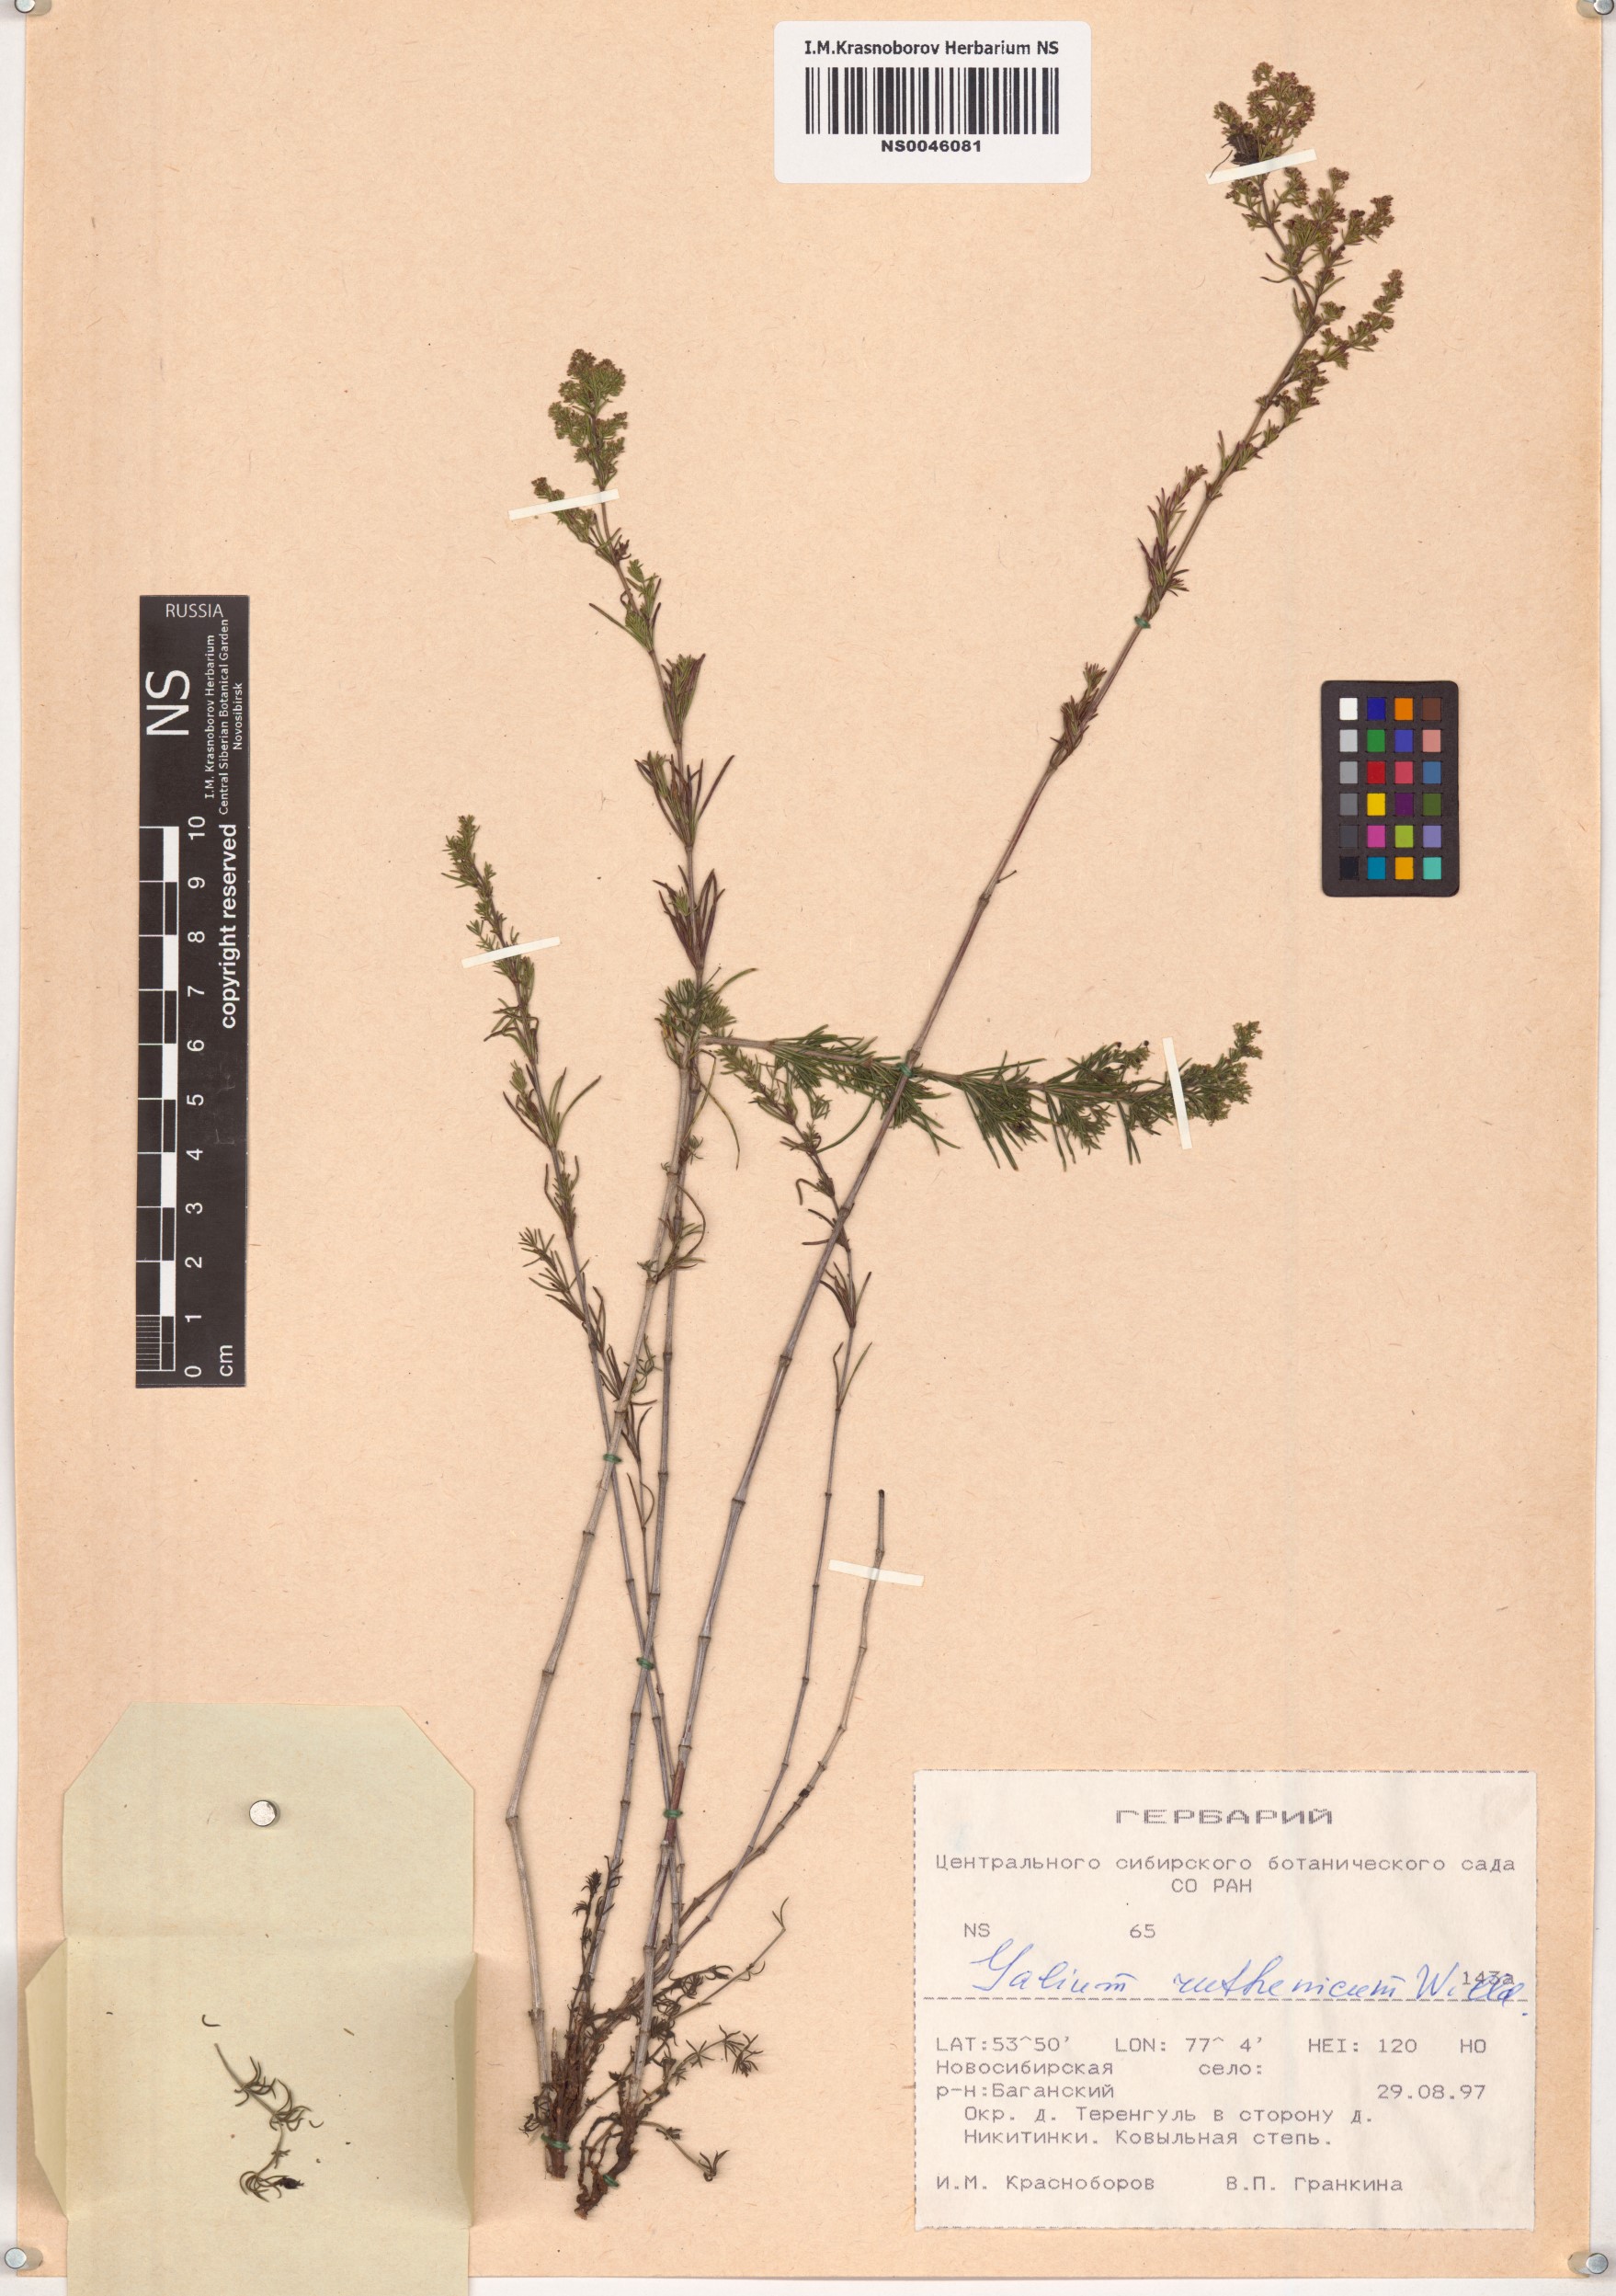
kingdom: Plantae
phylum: Tracheophyta
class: Magnoliopsida
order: Gentianales
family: Rubiaceae
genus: Galium
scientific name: Galium verum
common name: Lady's bedstraw
